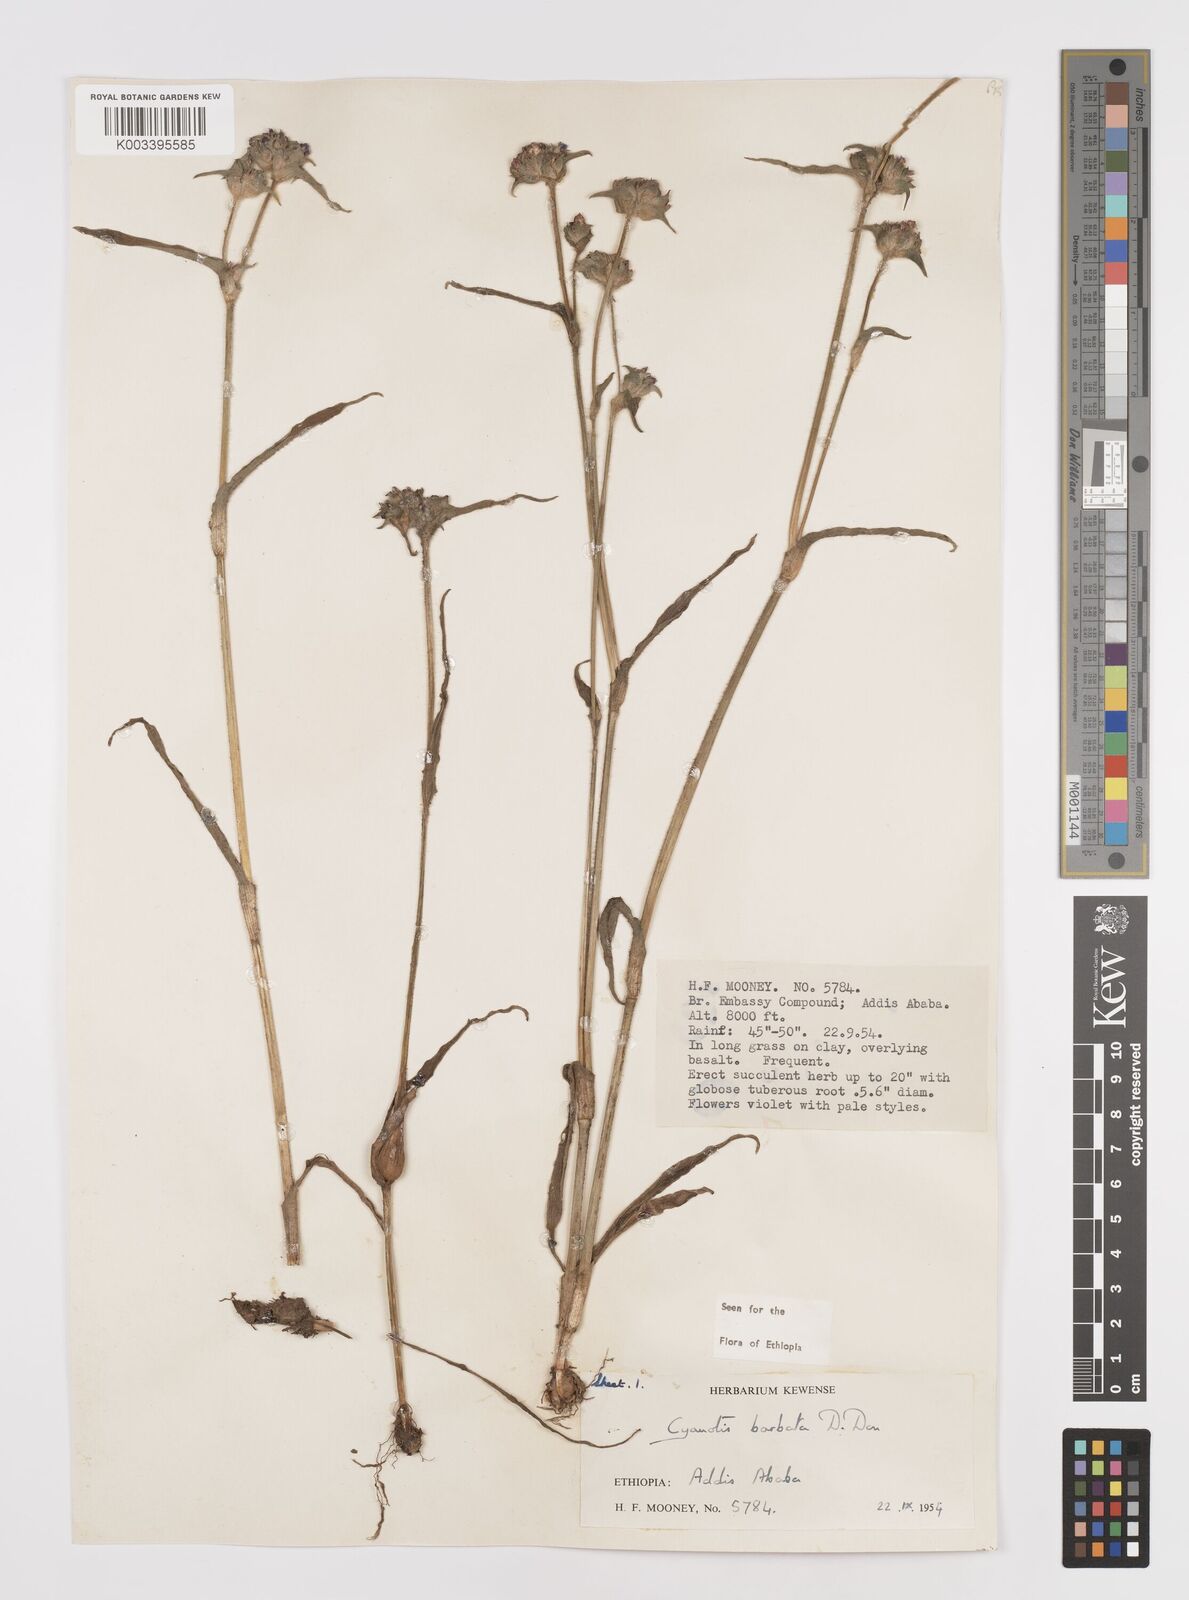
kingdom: Plantae
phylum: Tracheophyta
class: Liliopsida
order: Commelinales
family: Commelinaceae
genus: Cyanotis
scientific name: Cyanotis vaga
